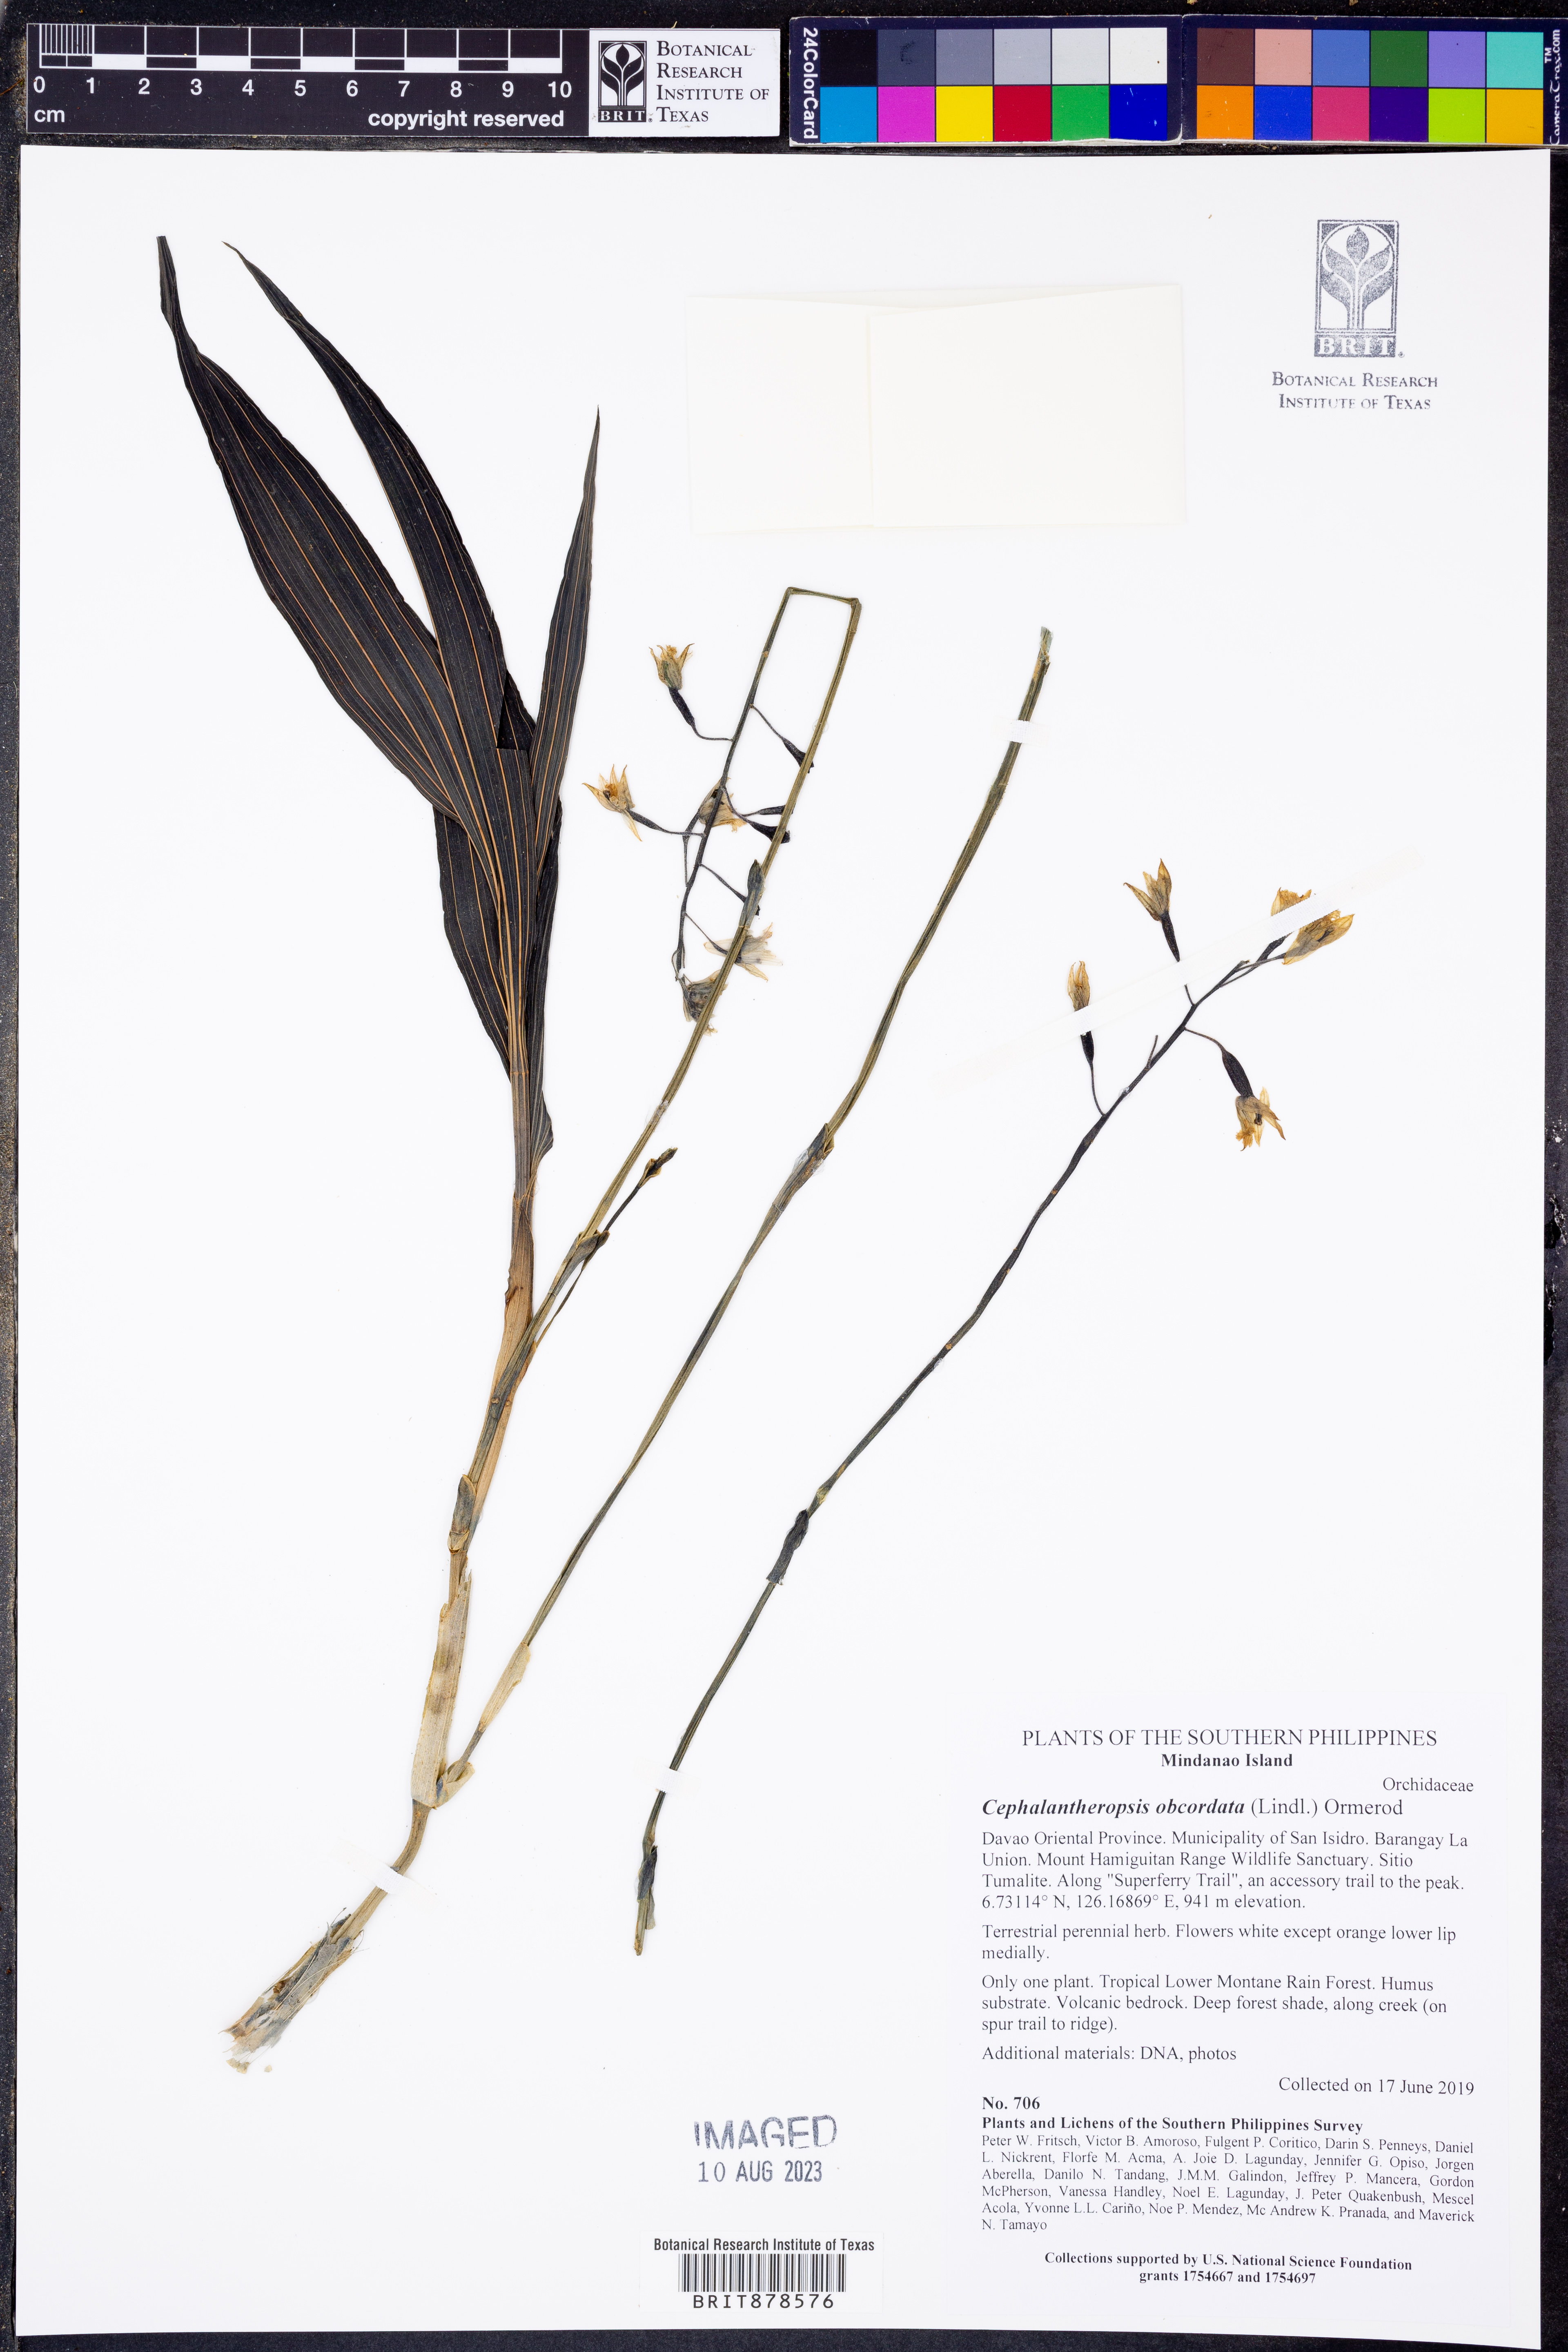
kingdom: Plantae
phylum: Tracheophyta
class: Liliopsida
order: Asparagales
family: Orchidaceae
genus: Calanthe
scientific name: Calanthe obcordata
